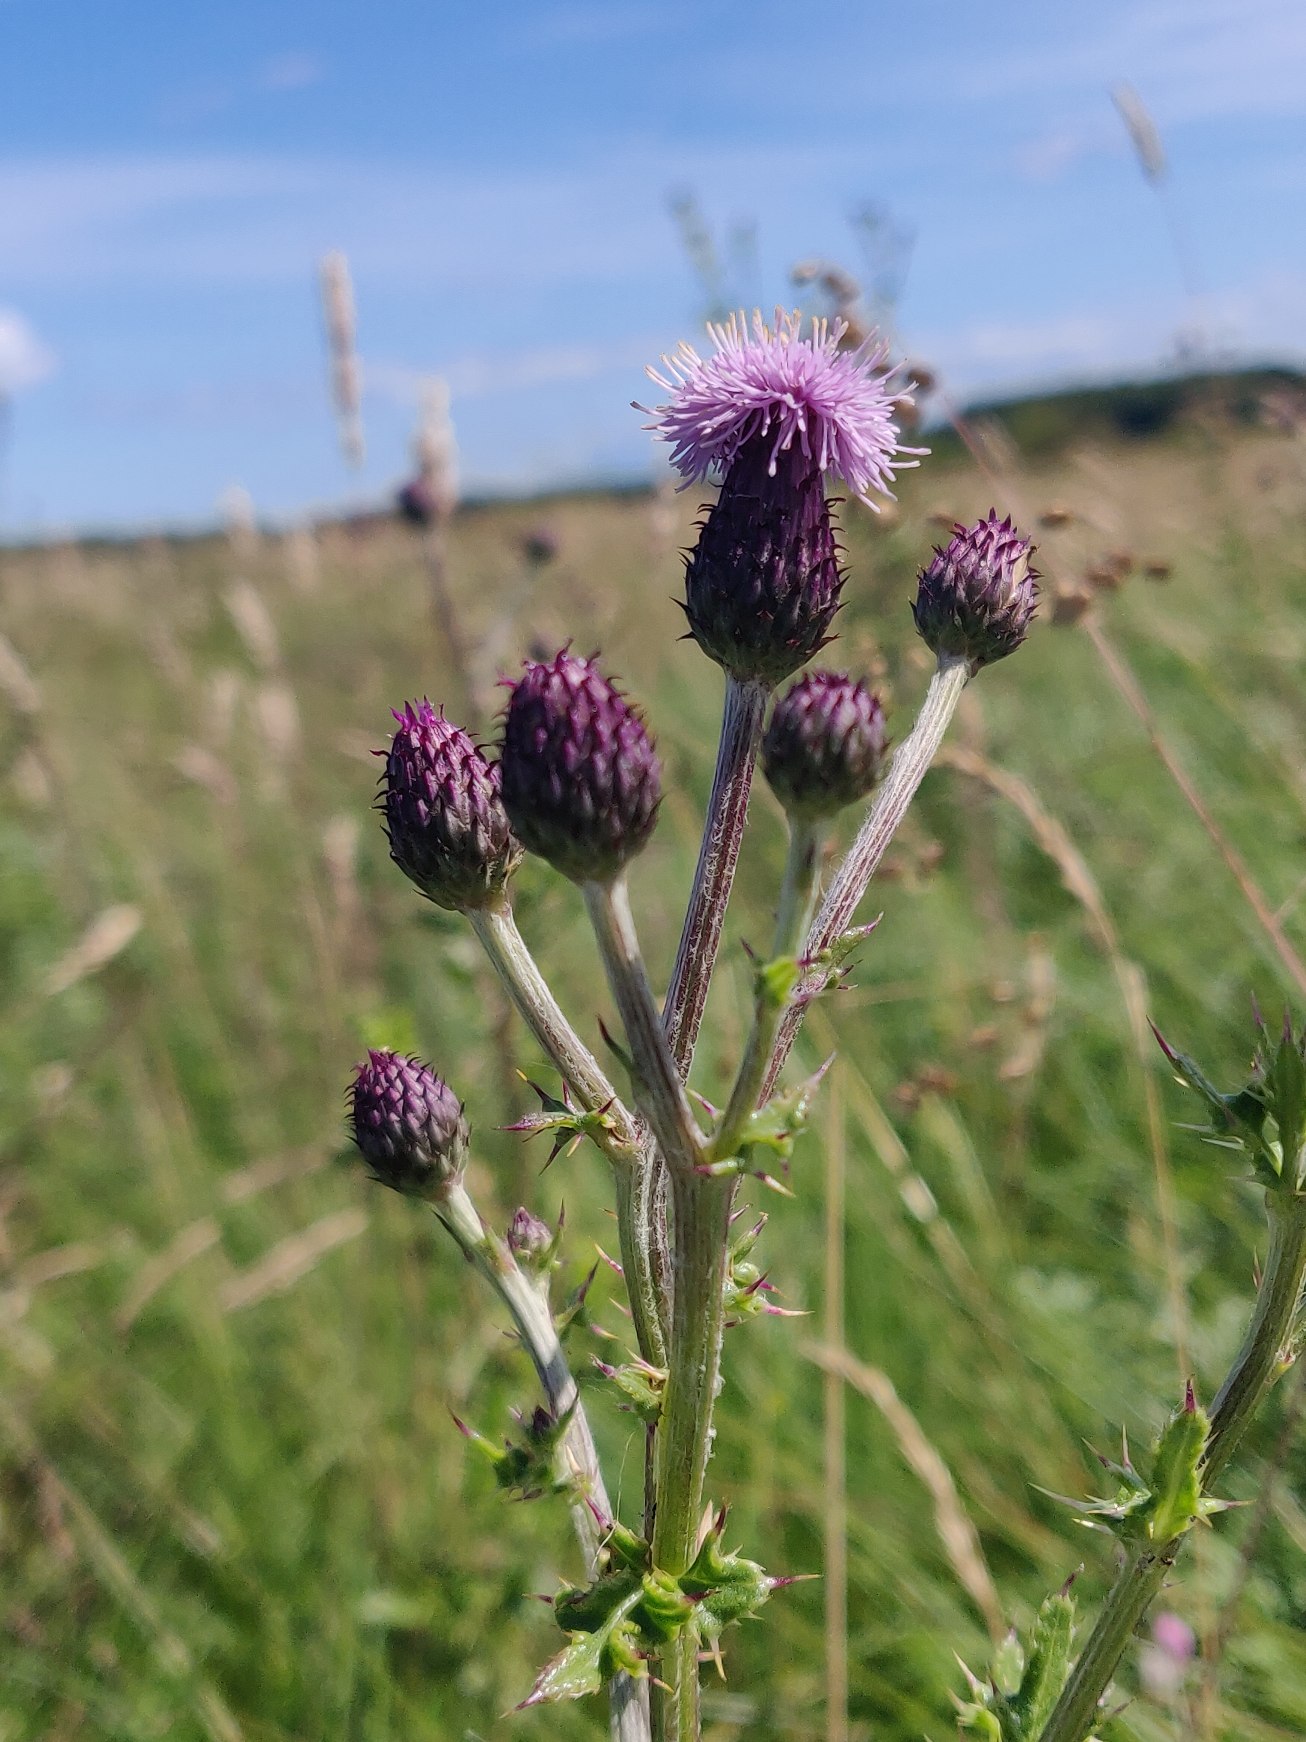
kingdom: Plantae
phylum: Tracheophyta
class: Magnoliopsida
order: Asterales
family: Asteraceae
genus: Cirsium
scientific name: Cirsium arvense
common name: Ager-tidsel
